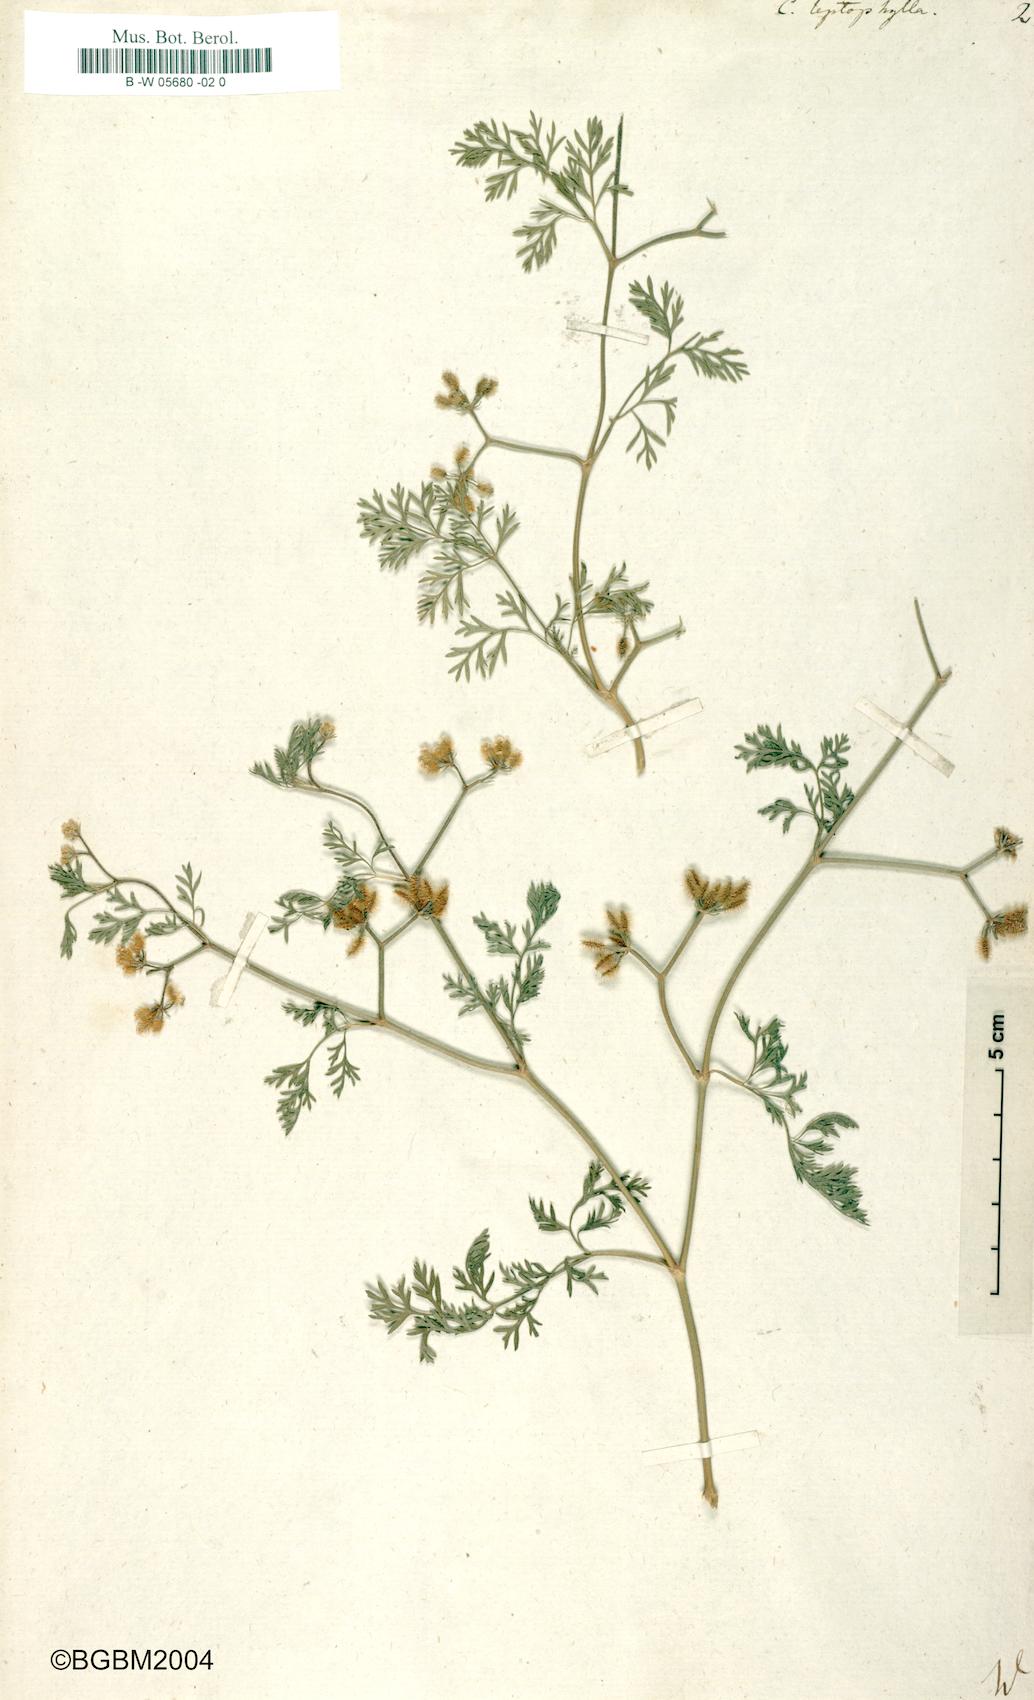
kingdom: Plantae
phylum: Tracheophyta
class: Magnoliopsida
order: Apiales
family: Apiaceae
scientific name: Apiaceae
